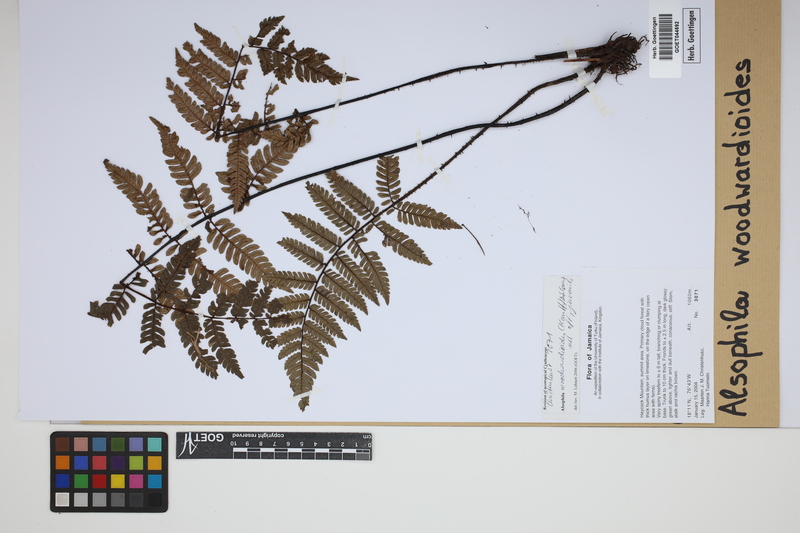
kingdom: Plantae
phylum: Tracheophyta
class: Polypodiopsida
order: Cyatheales
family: Cyatheaceae
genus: Alsophila
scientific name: Alsophila woodwardioides
